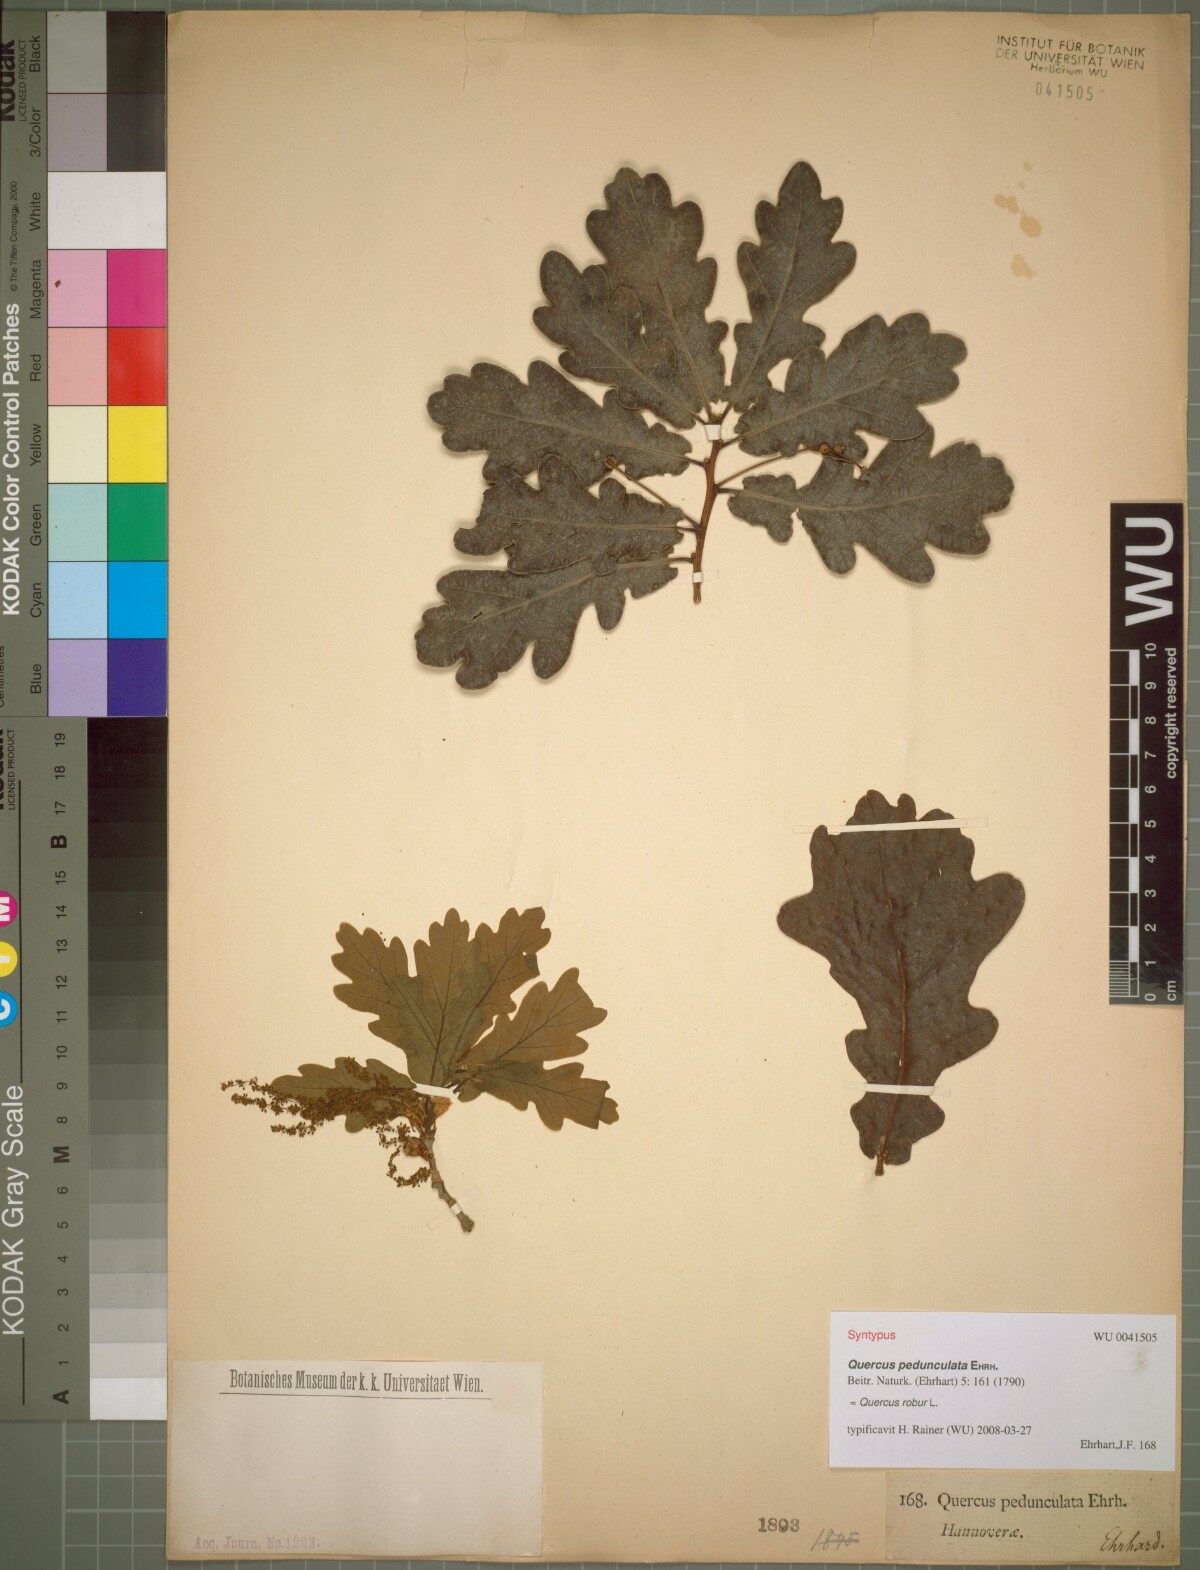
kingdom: Plantae
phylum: Tracheophyta
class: Magnoliopsida
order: Fagales
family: Fagaceae
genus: Quercus
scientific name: Quercus robur
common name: Pedunculate oak
